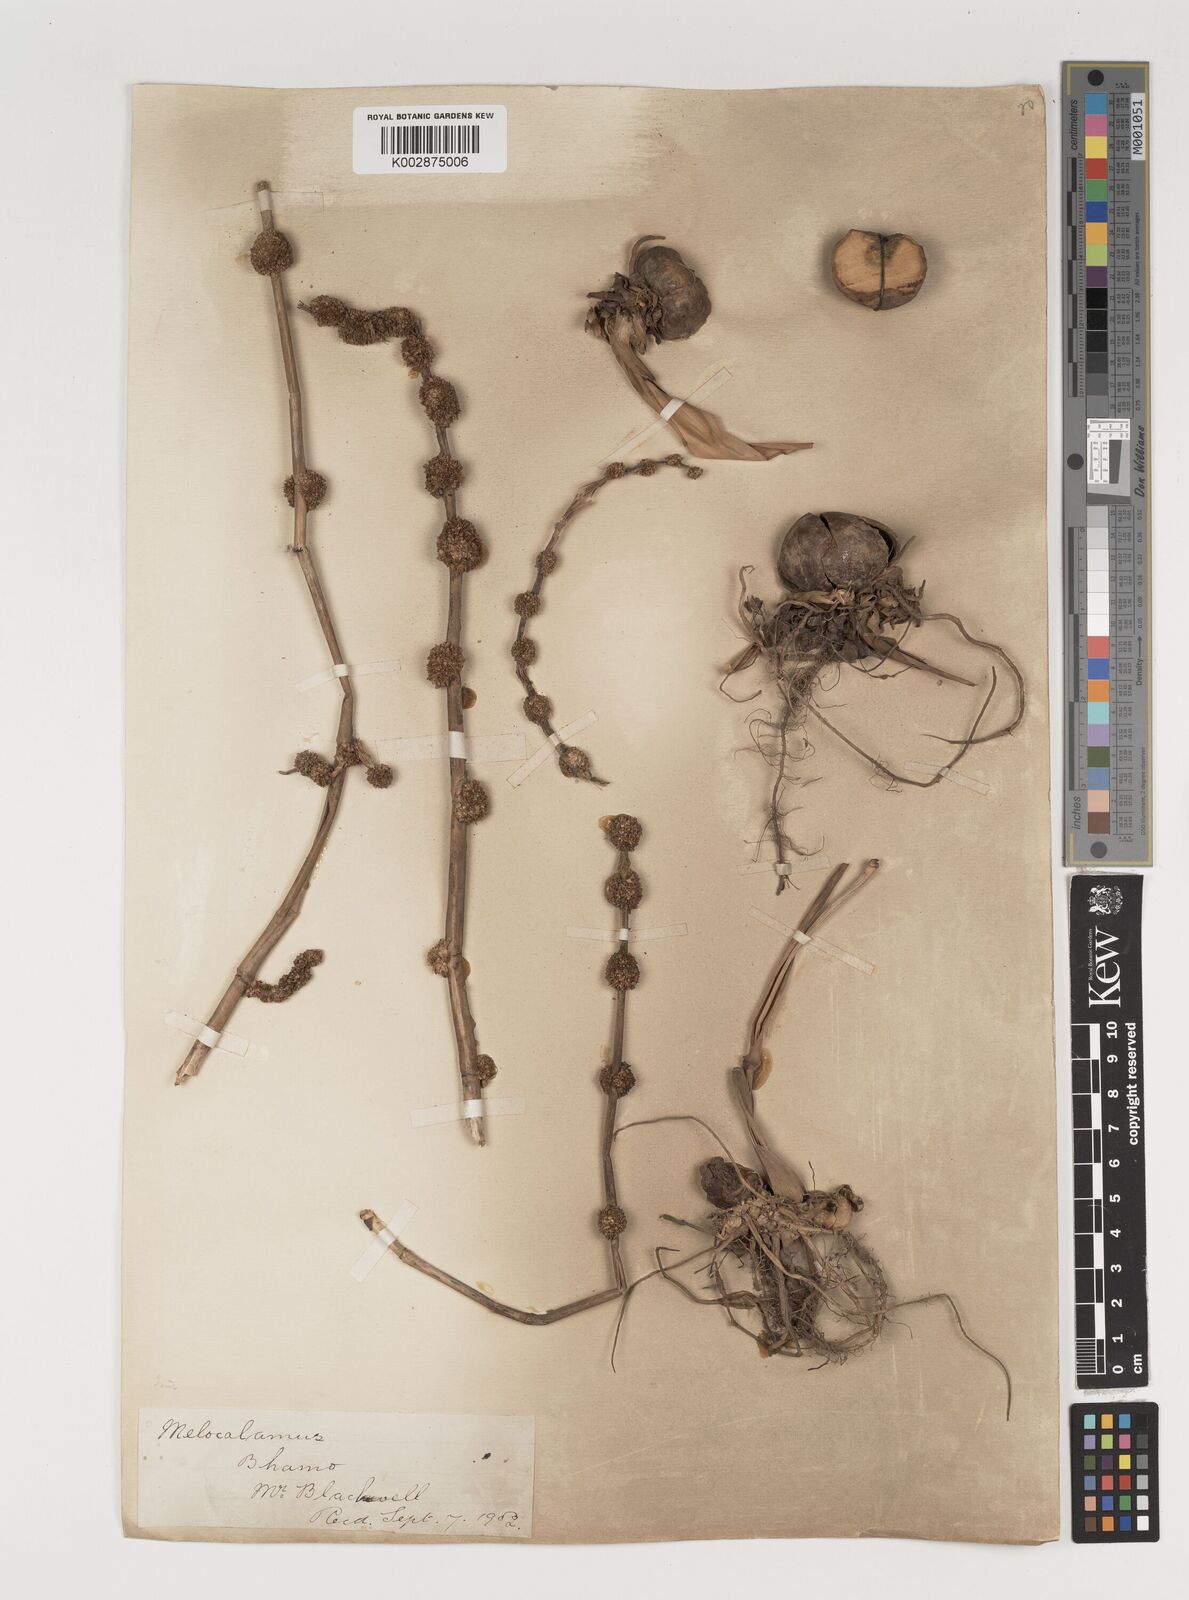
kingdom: Plantae
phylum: Tracheophyta
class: Liliopsida
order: Poales
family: Poaceae
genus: Melocalamus
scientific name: Melocalamus compactiflorus
